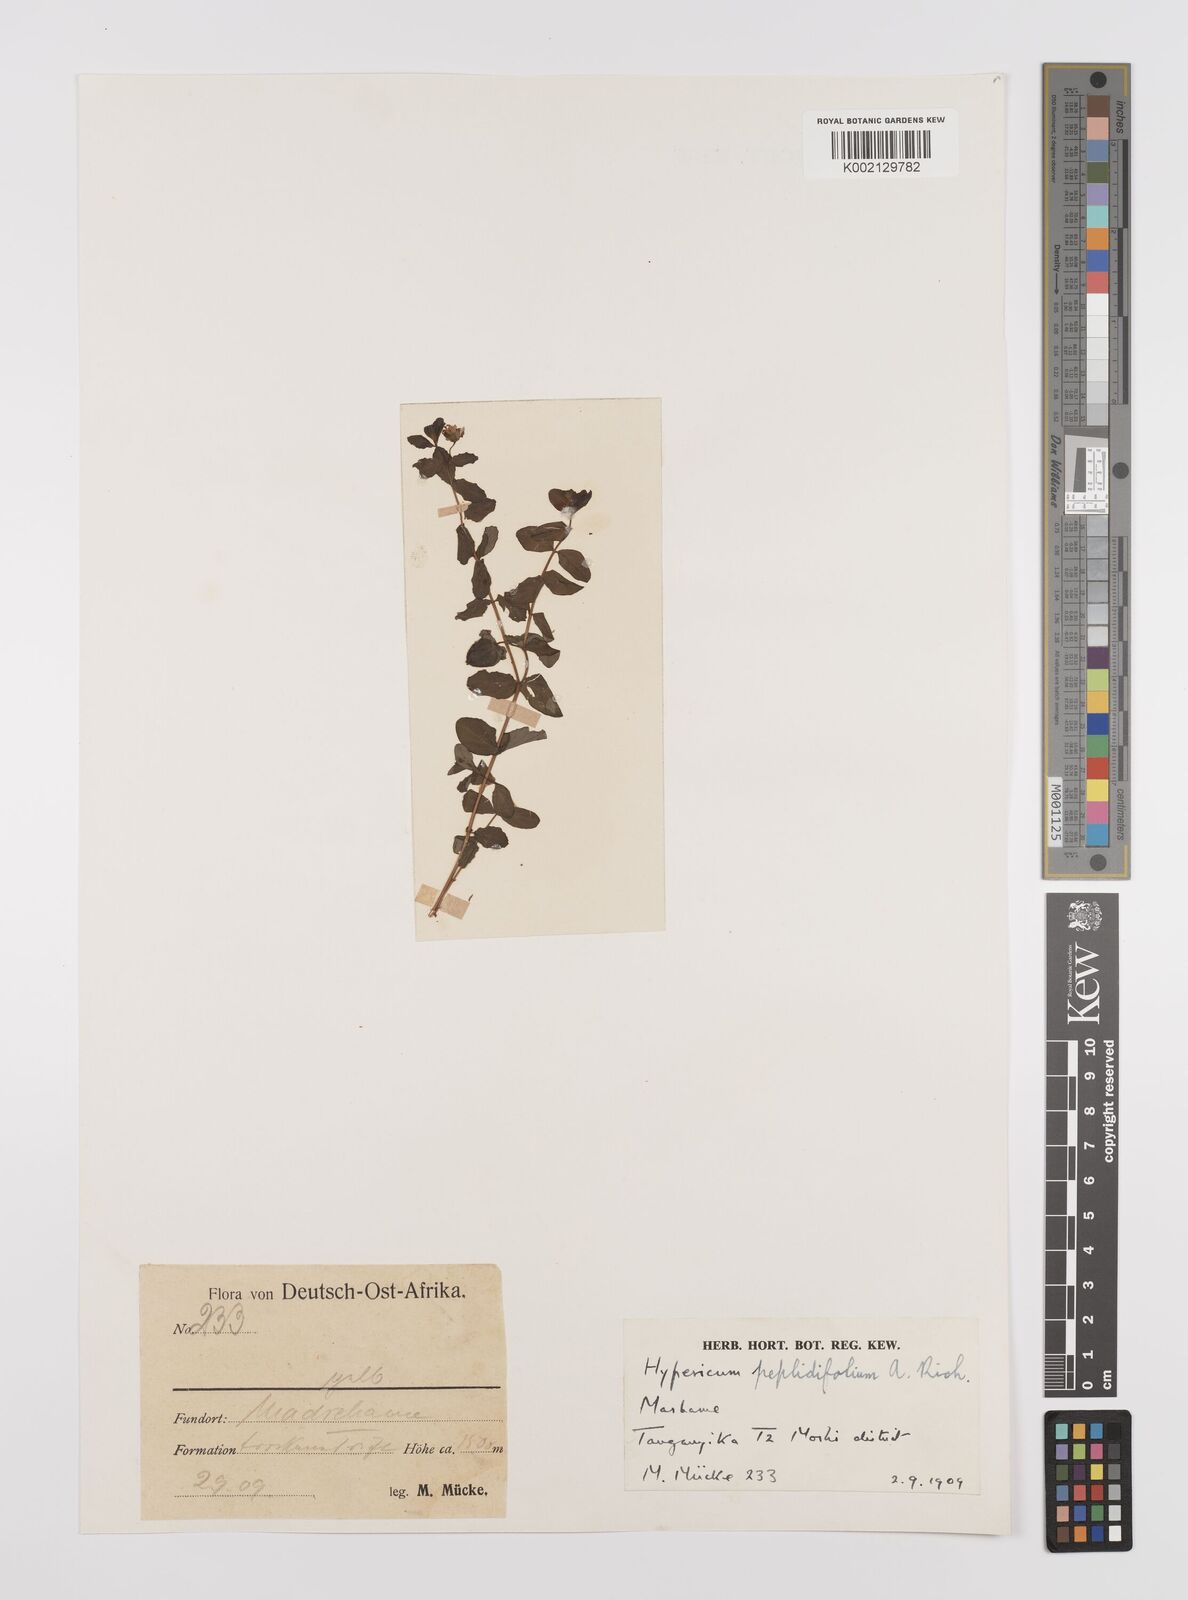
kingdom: Plantae
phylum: Tracheophyta
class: Magnoliopsida
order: Malpighiales
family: Hypericaceae
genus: Hypericum
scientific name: Hypericum peplidifolium
